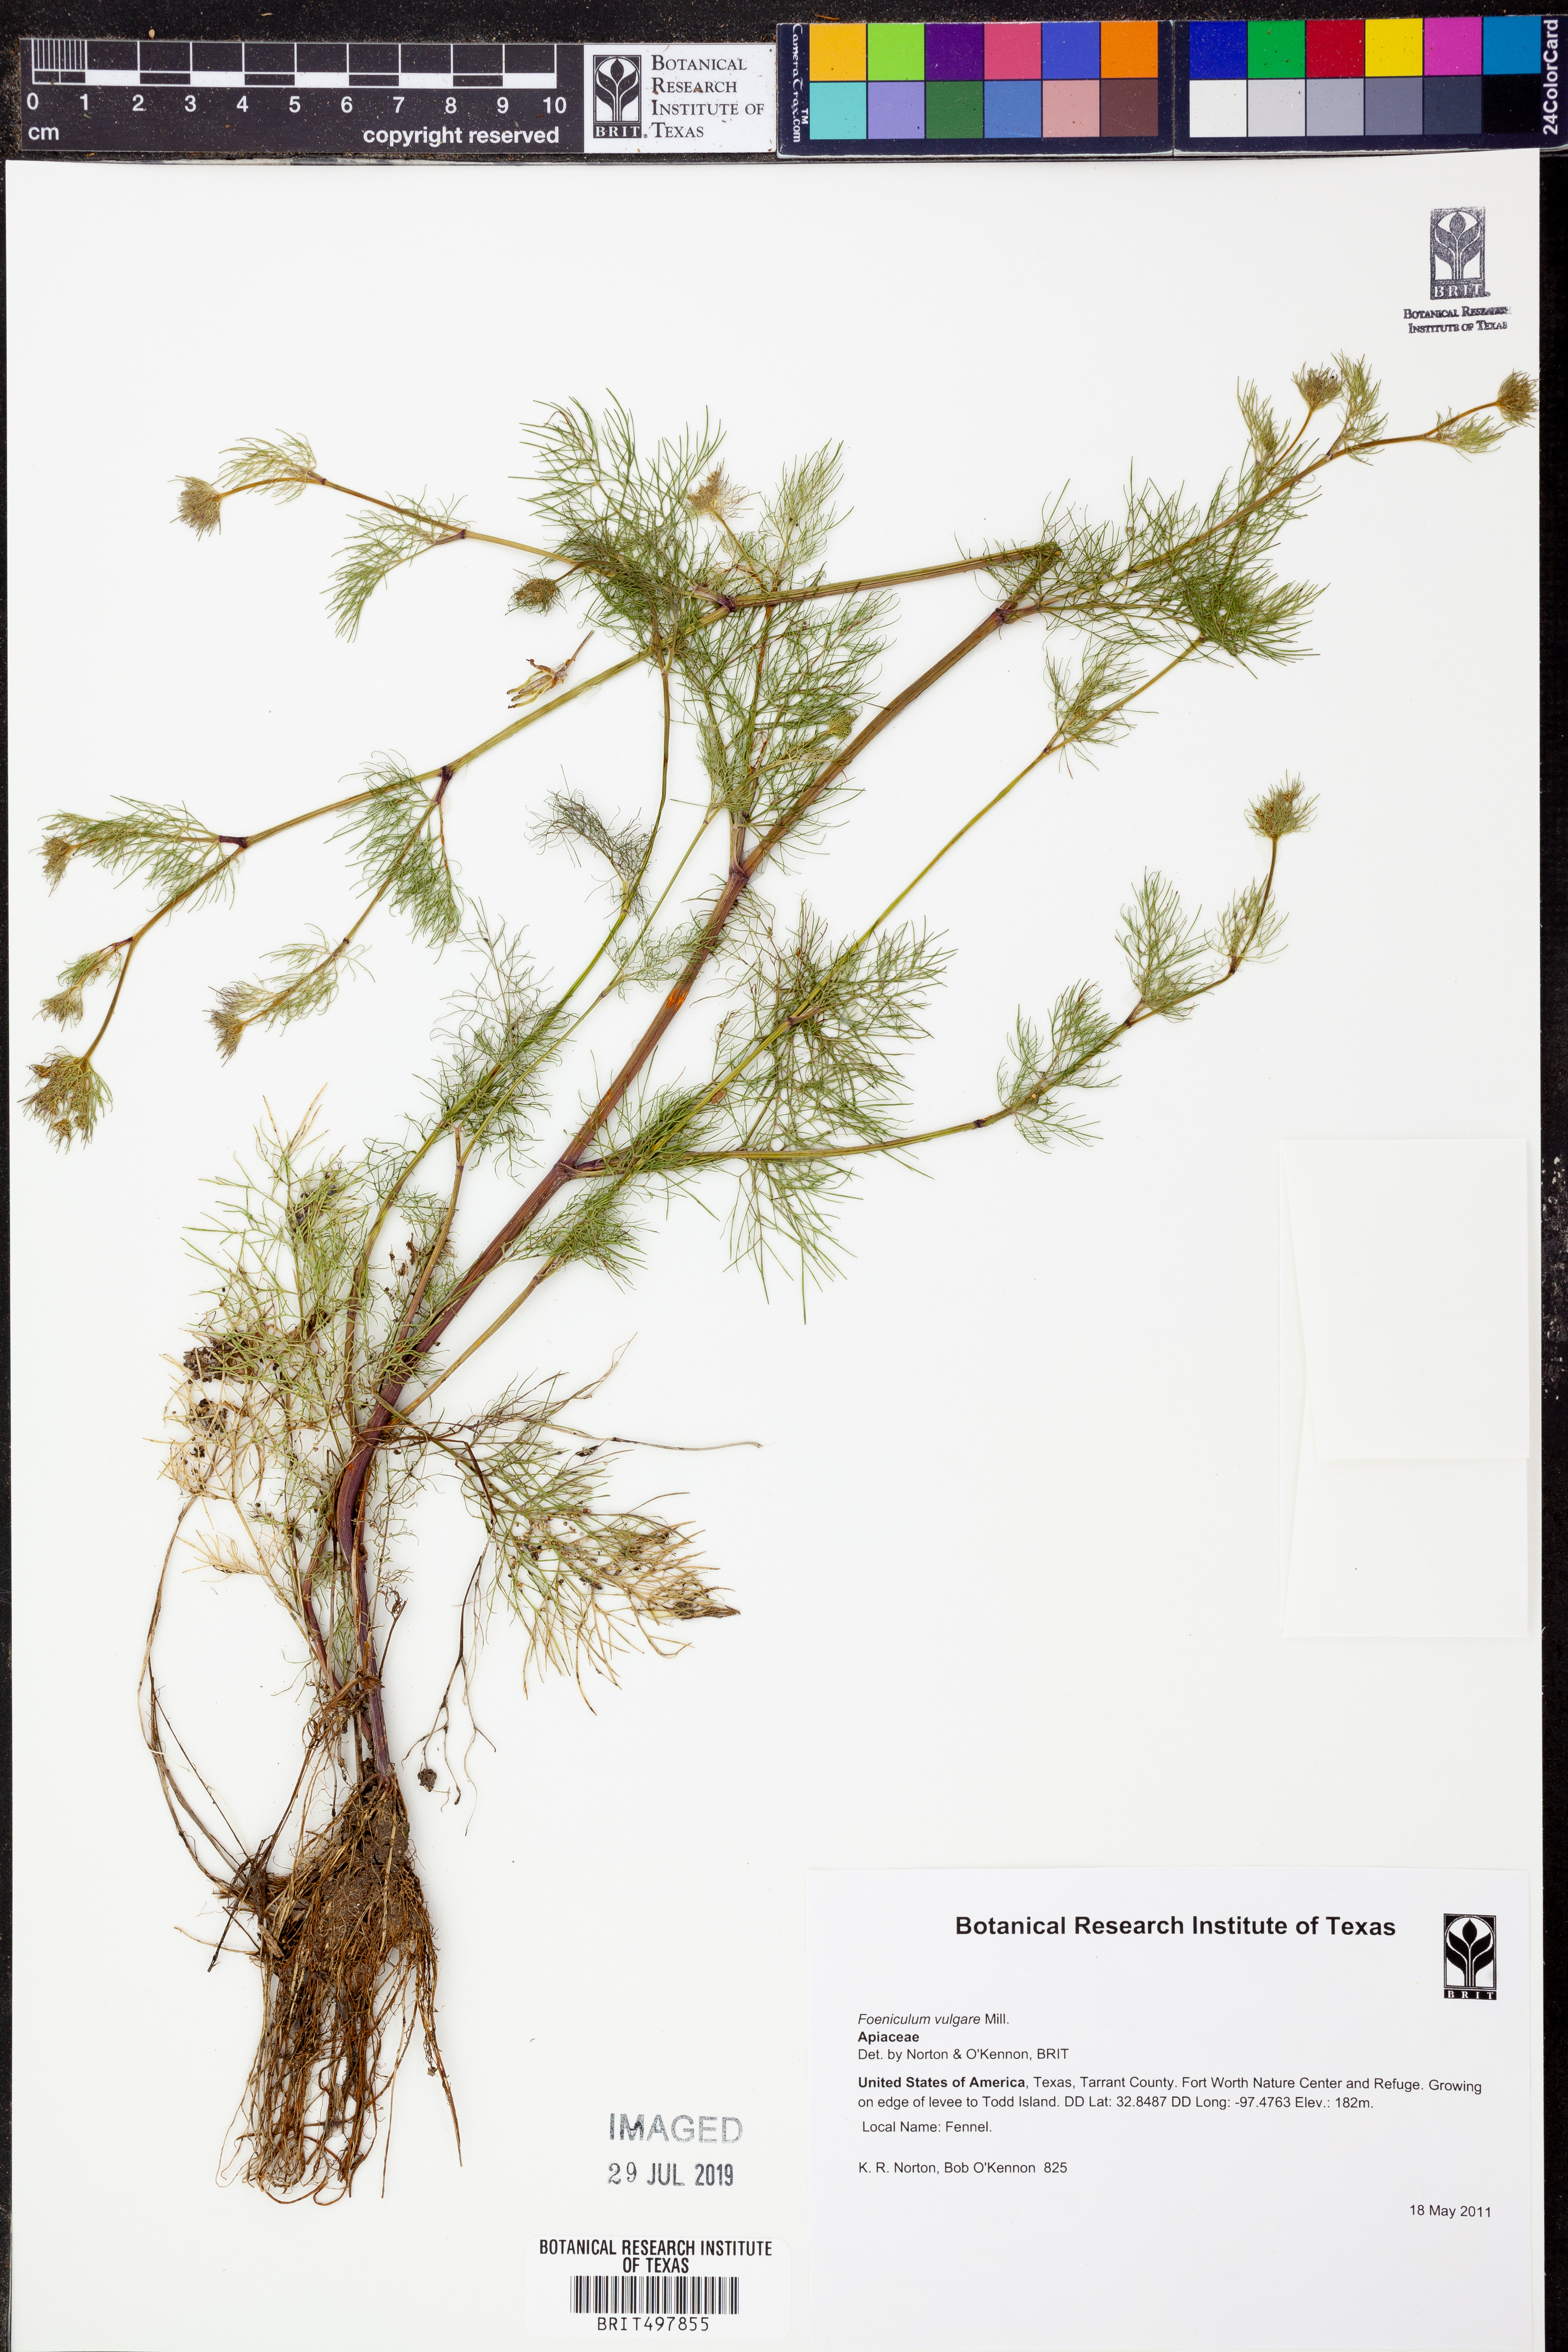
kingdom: Plantae
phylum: Tracheophyta
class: Magnoliopsida
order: Apiales
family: Apiaceae
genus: Foeniculum
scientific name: Foeniculum vulgare
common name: Fennel
